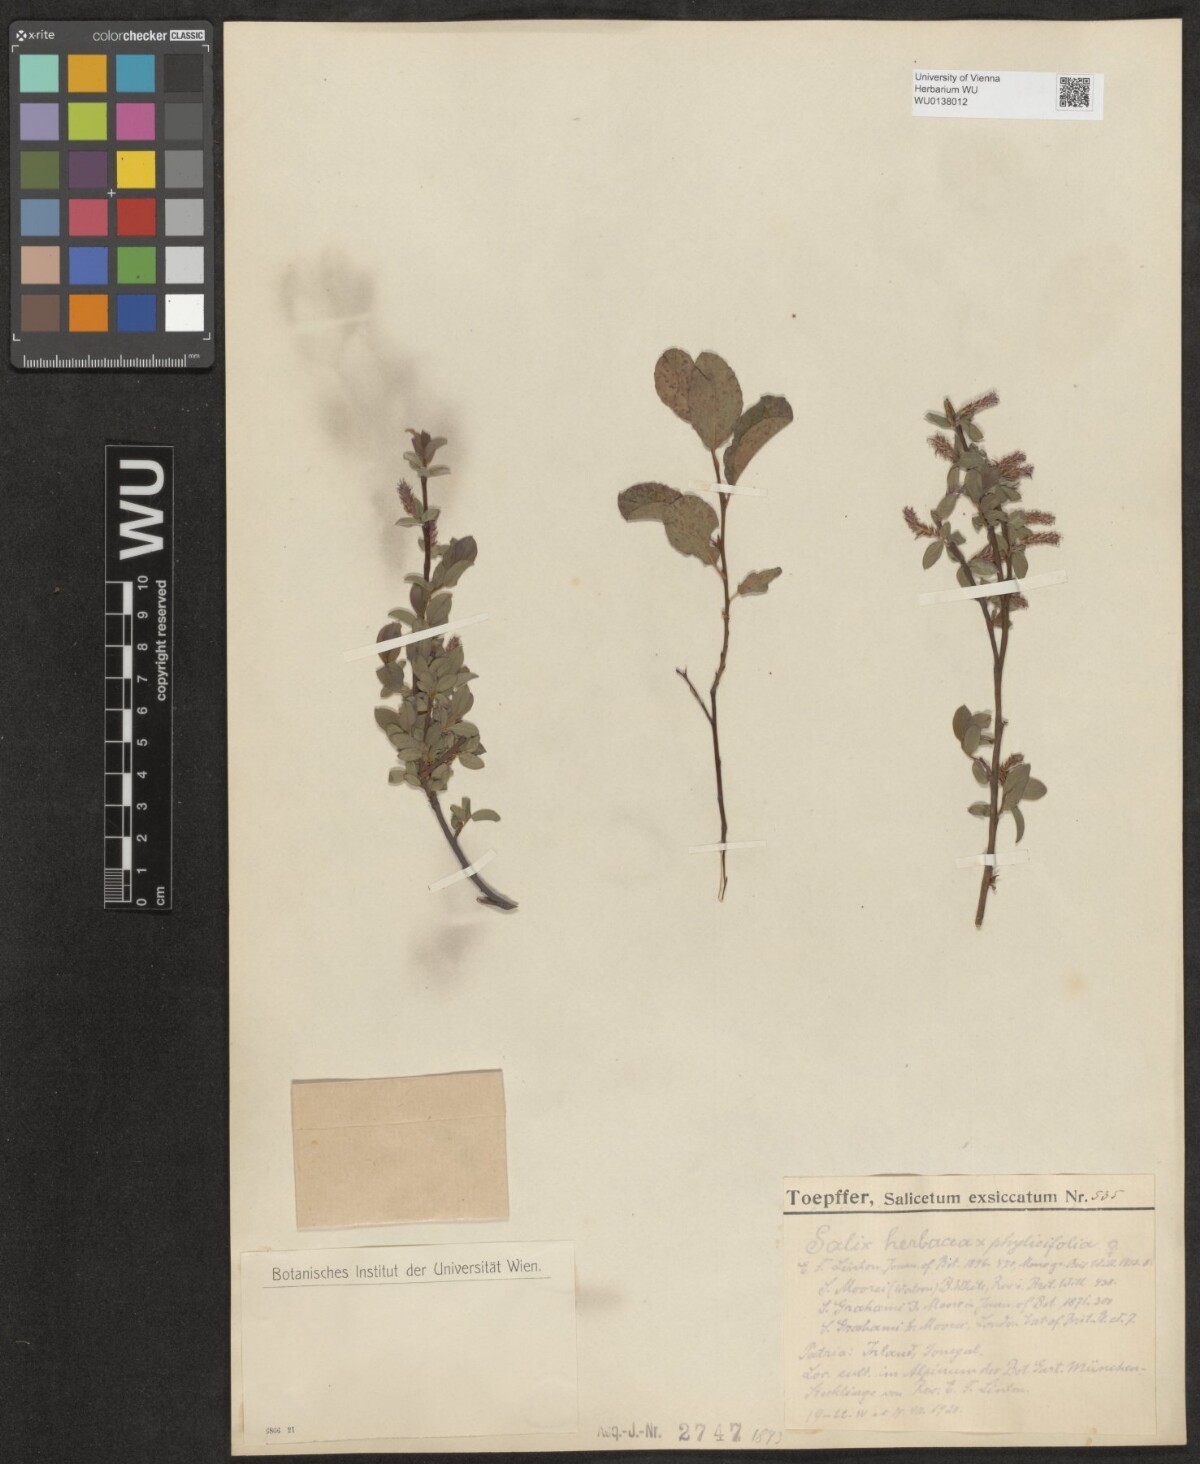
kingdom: Plantae
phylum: Tracheophyta
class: Magnoliopsida
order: Malpighiales
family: Salicaceae
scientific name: Salicaceae
